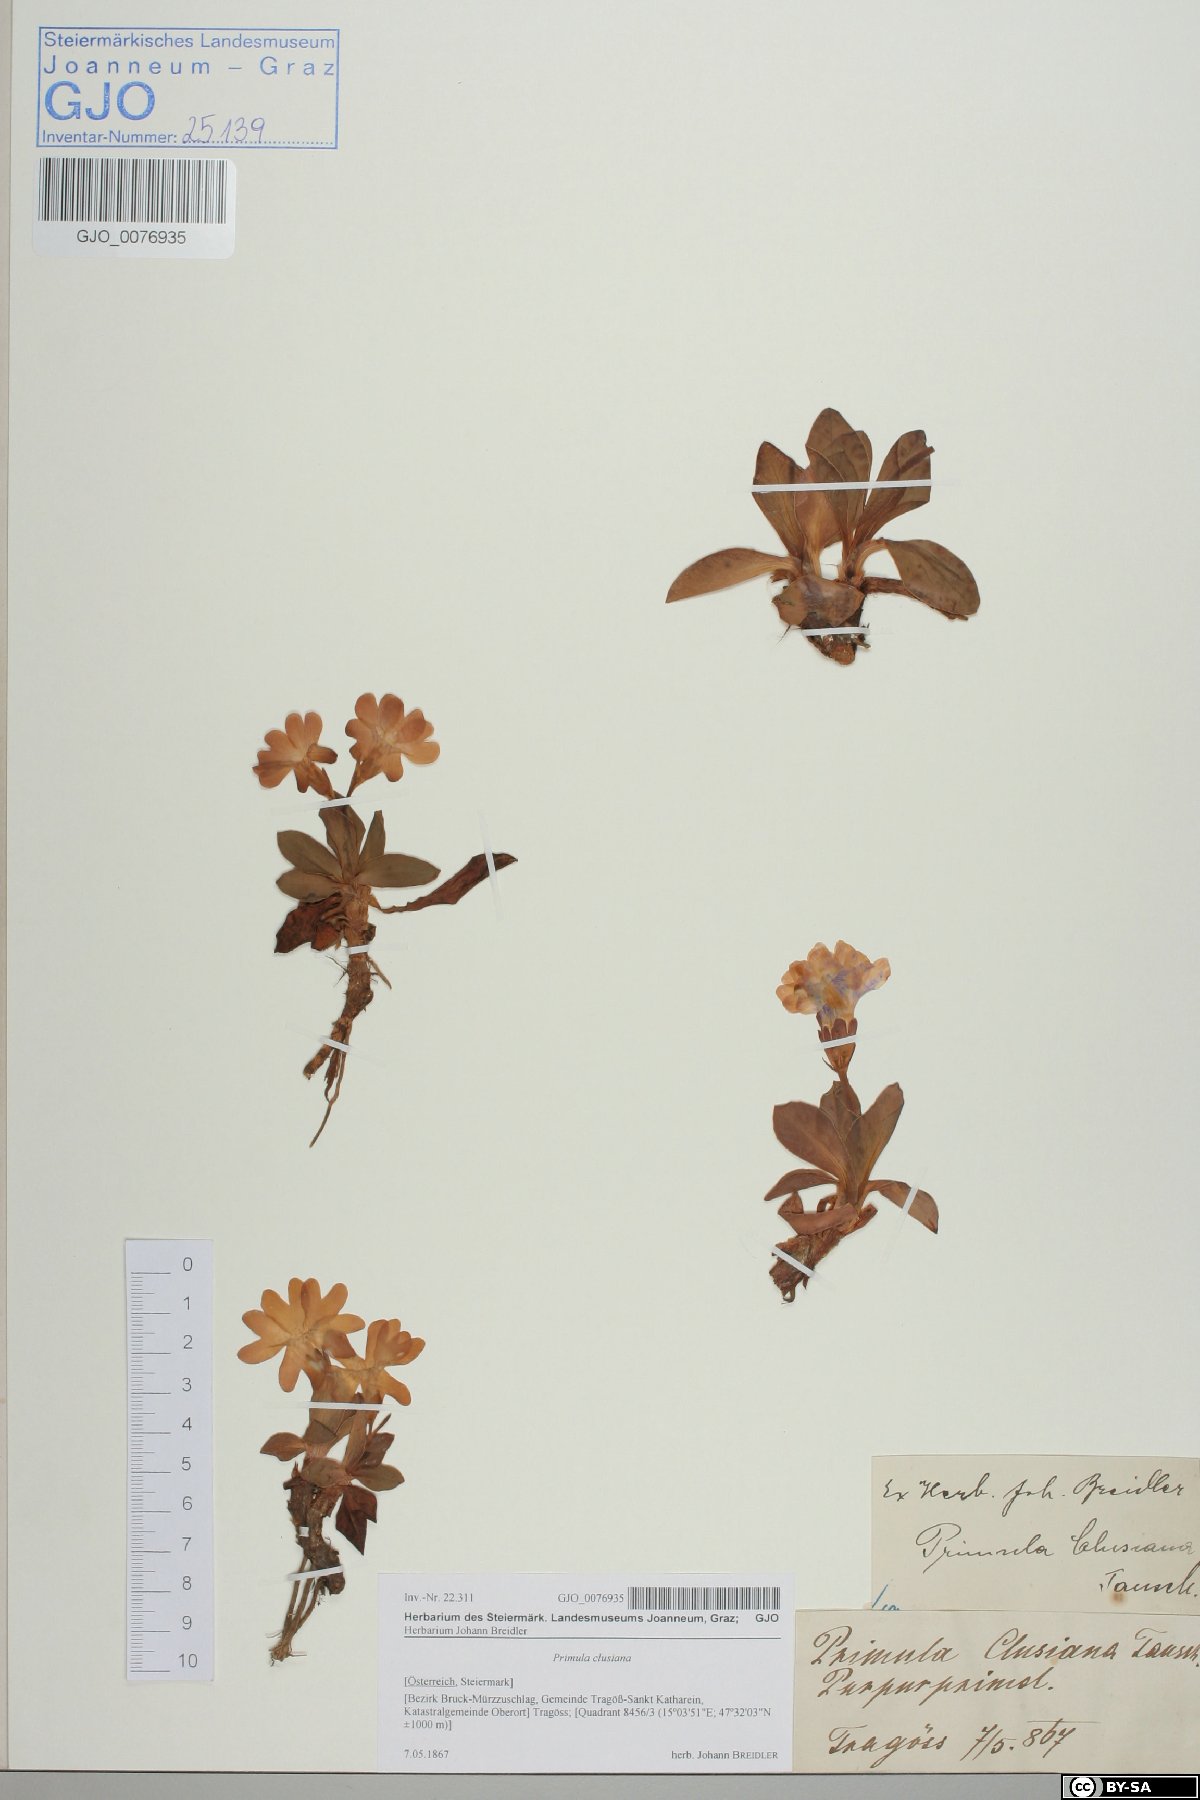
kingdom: Plantae
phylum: Tracheophyta
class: Magnoliopsida
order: Ericales
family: Primulaceae
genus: Primula
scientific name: Primula clusiana
